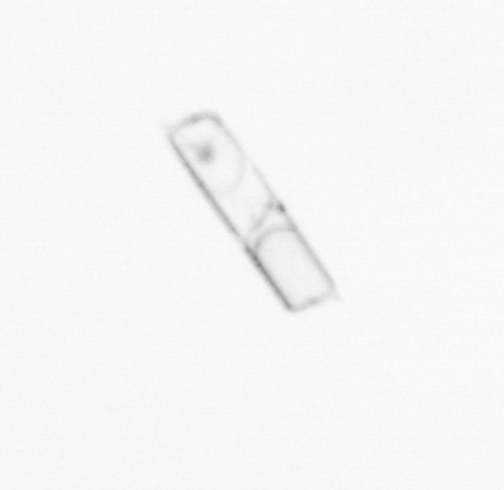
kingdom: Chromista
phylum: Ochrophyta
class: Bacillariophyceae
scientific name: Bacillariophyceae
